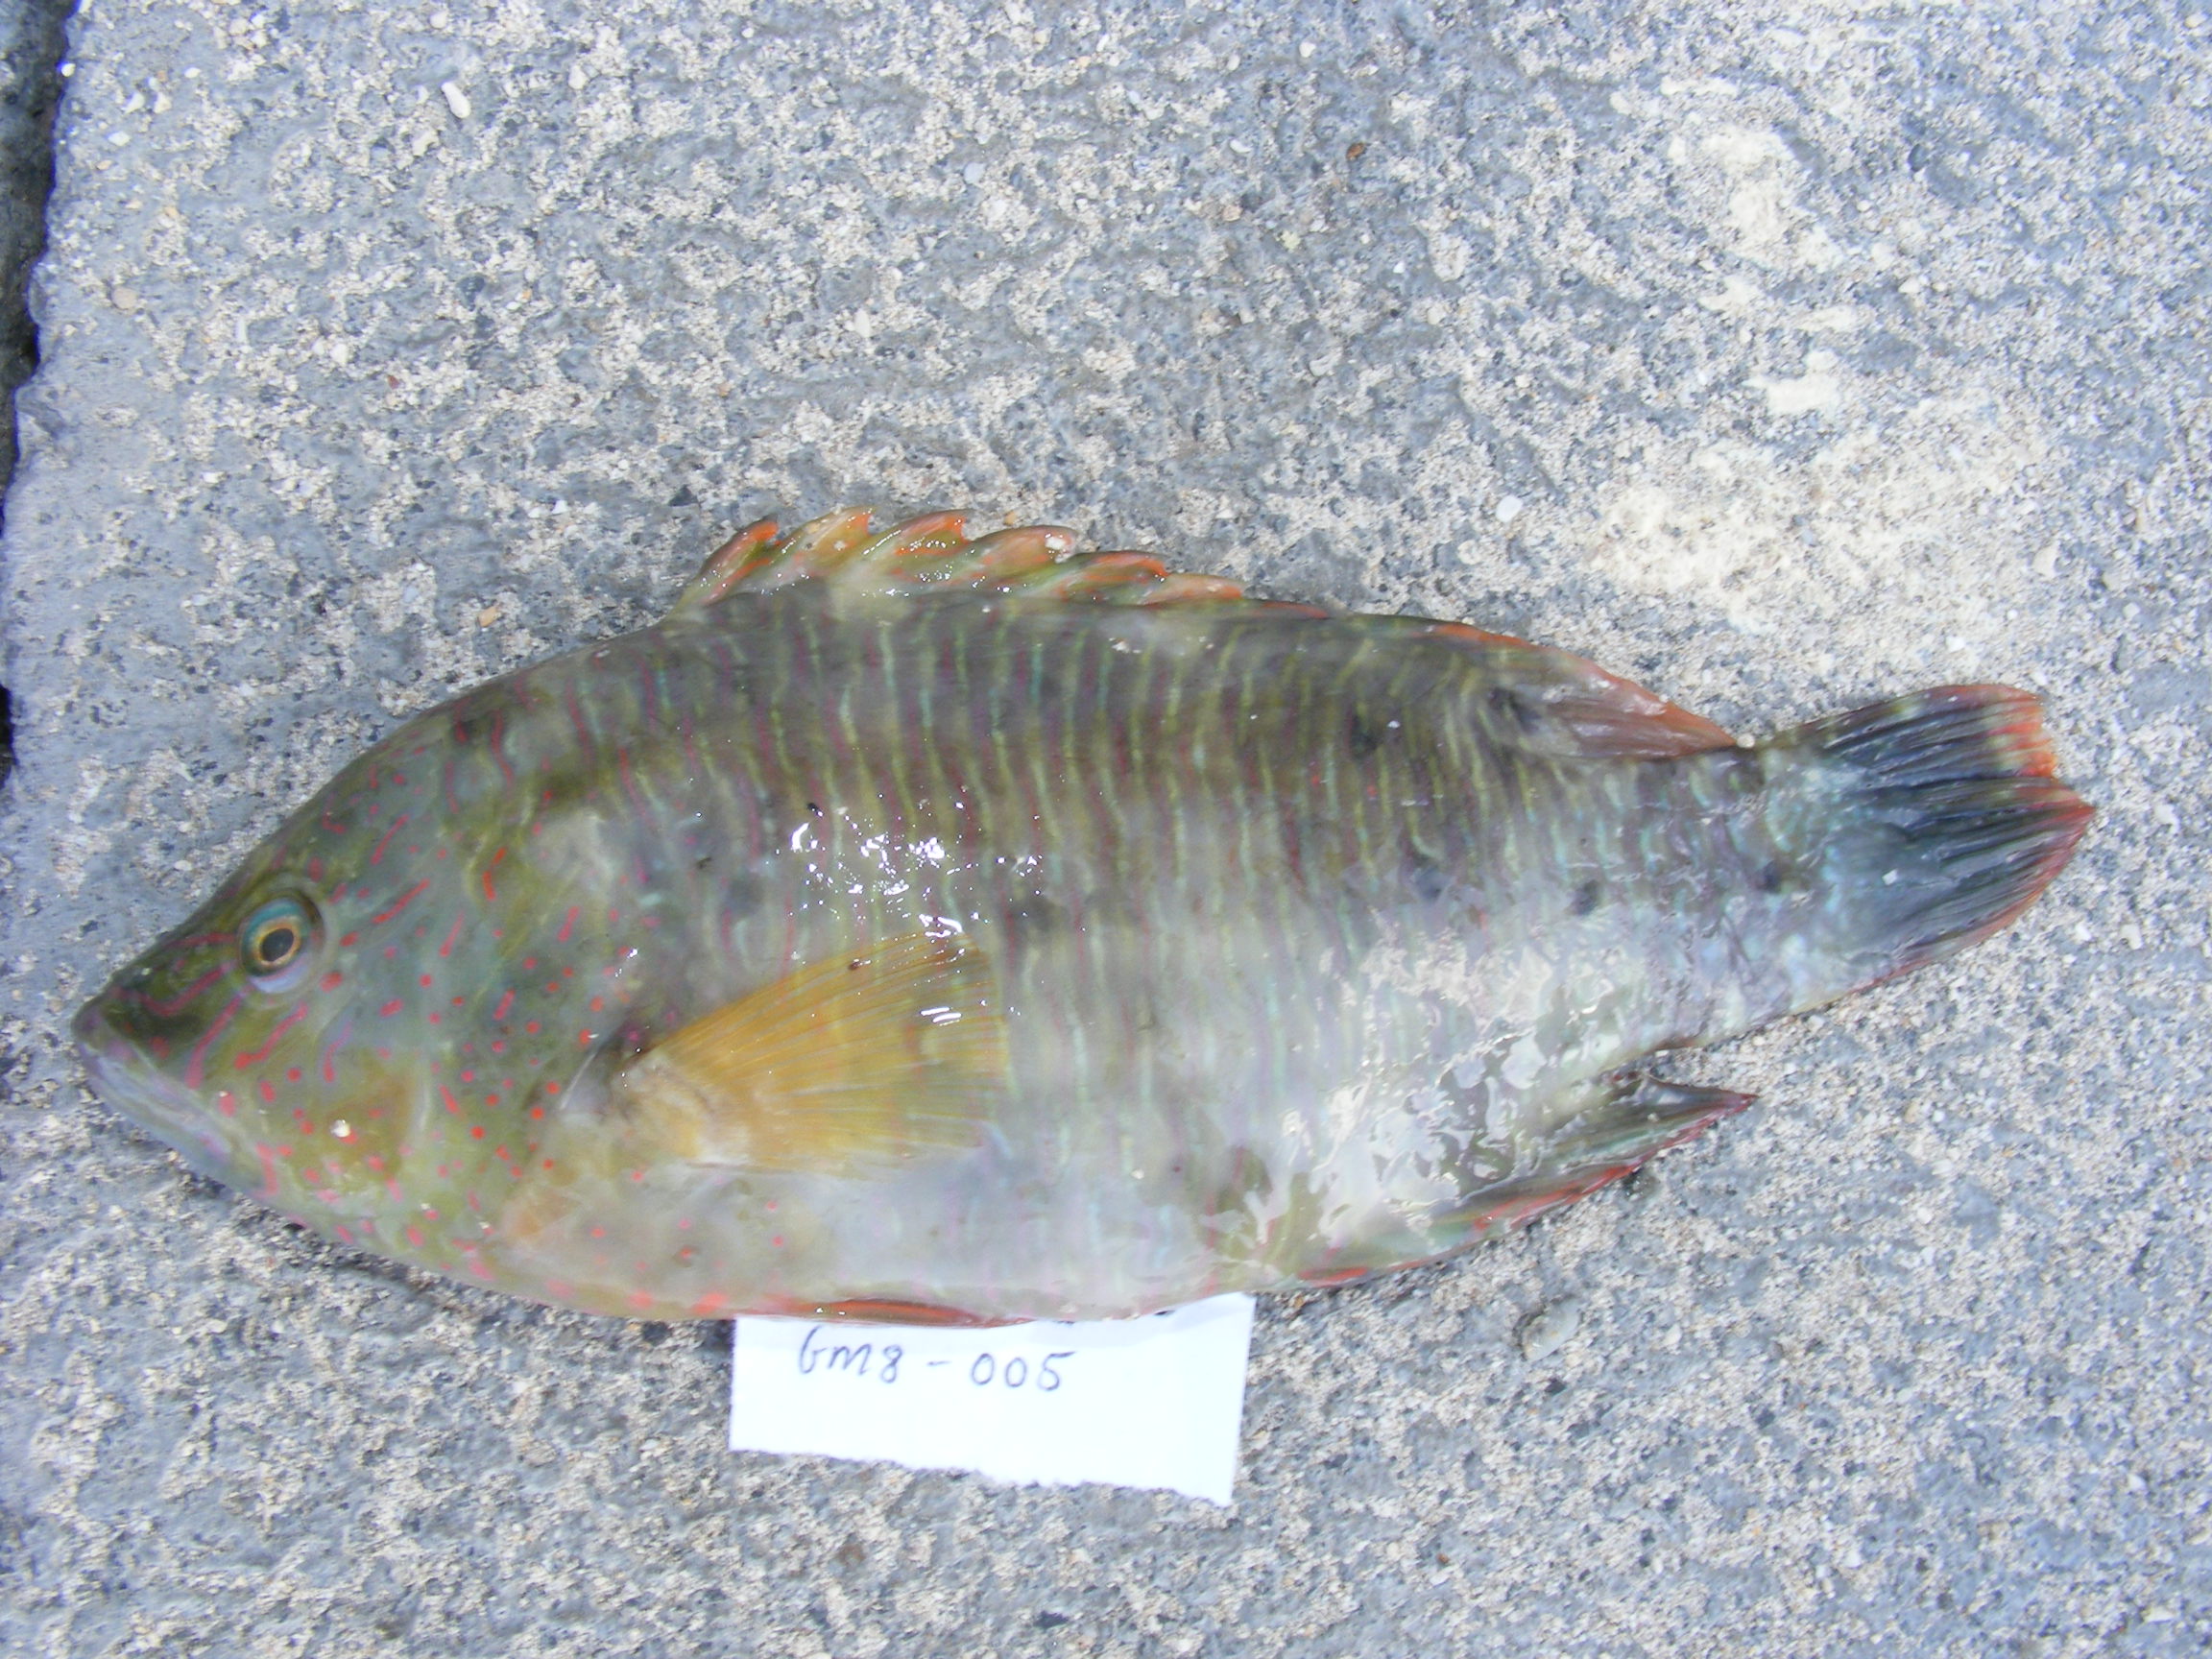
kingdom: Animalia
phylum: Chordata
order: Perciformes
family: Labridae
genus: Cheilinus
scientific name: Cheilinus trilobatus
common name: Tripletail maori wrasse
